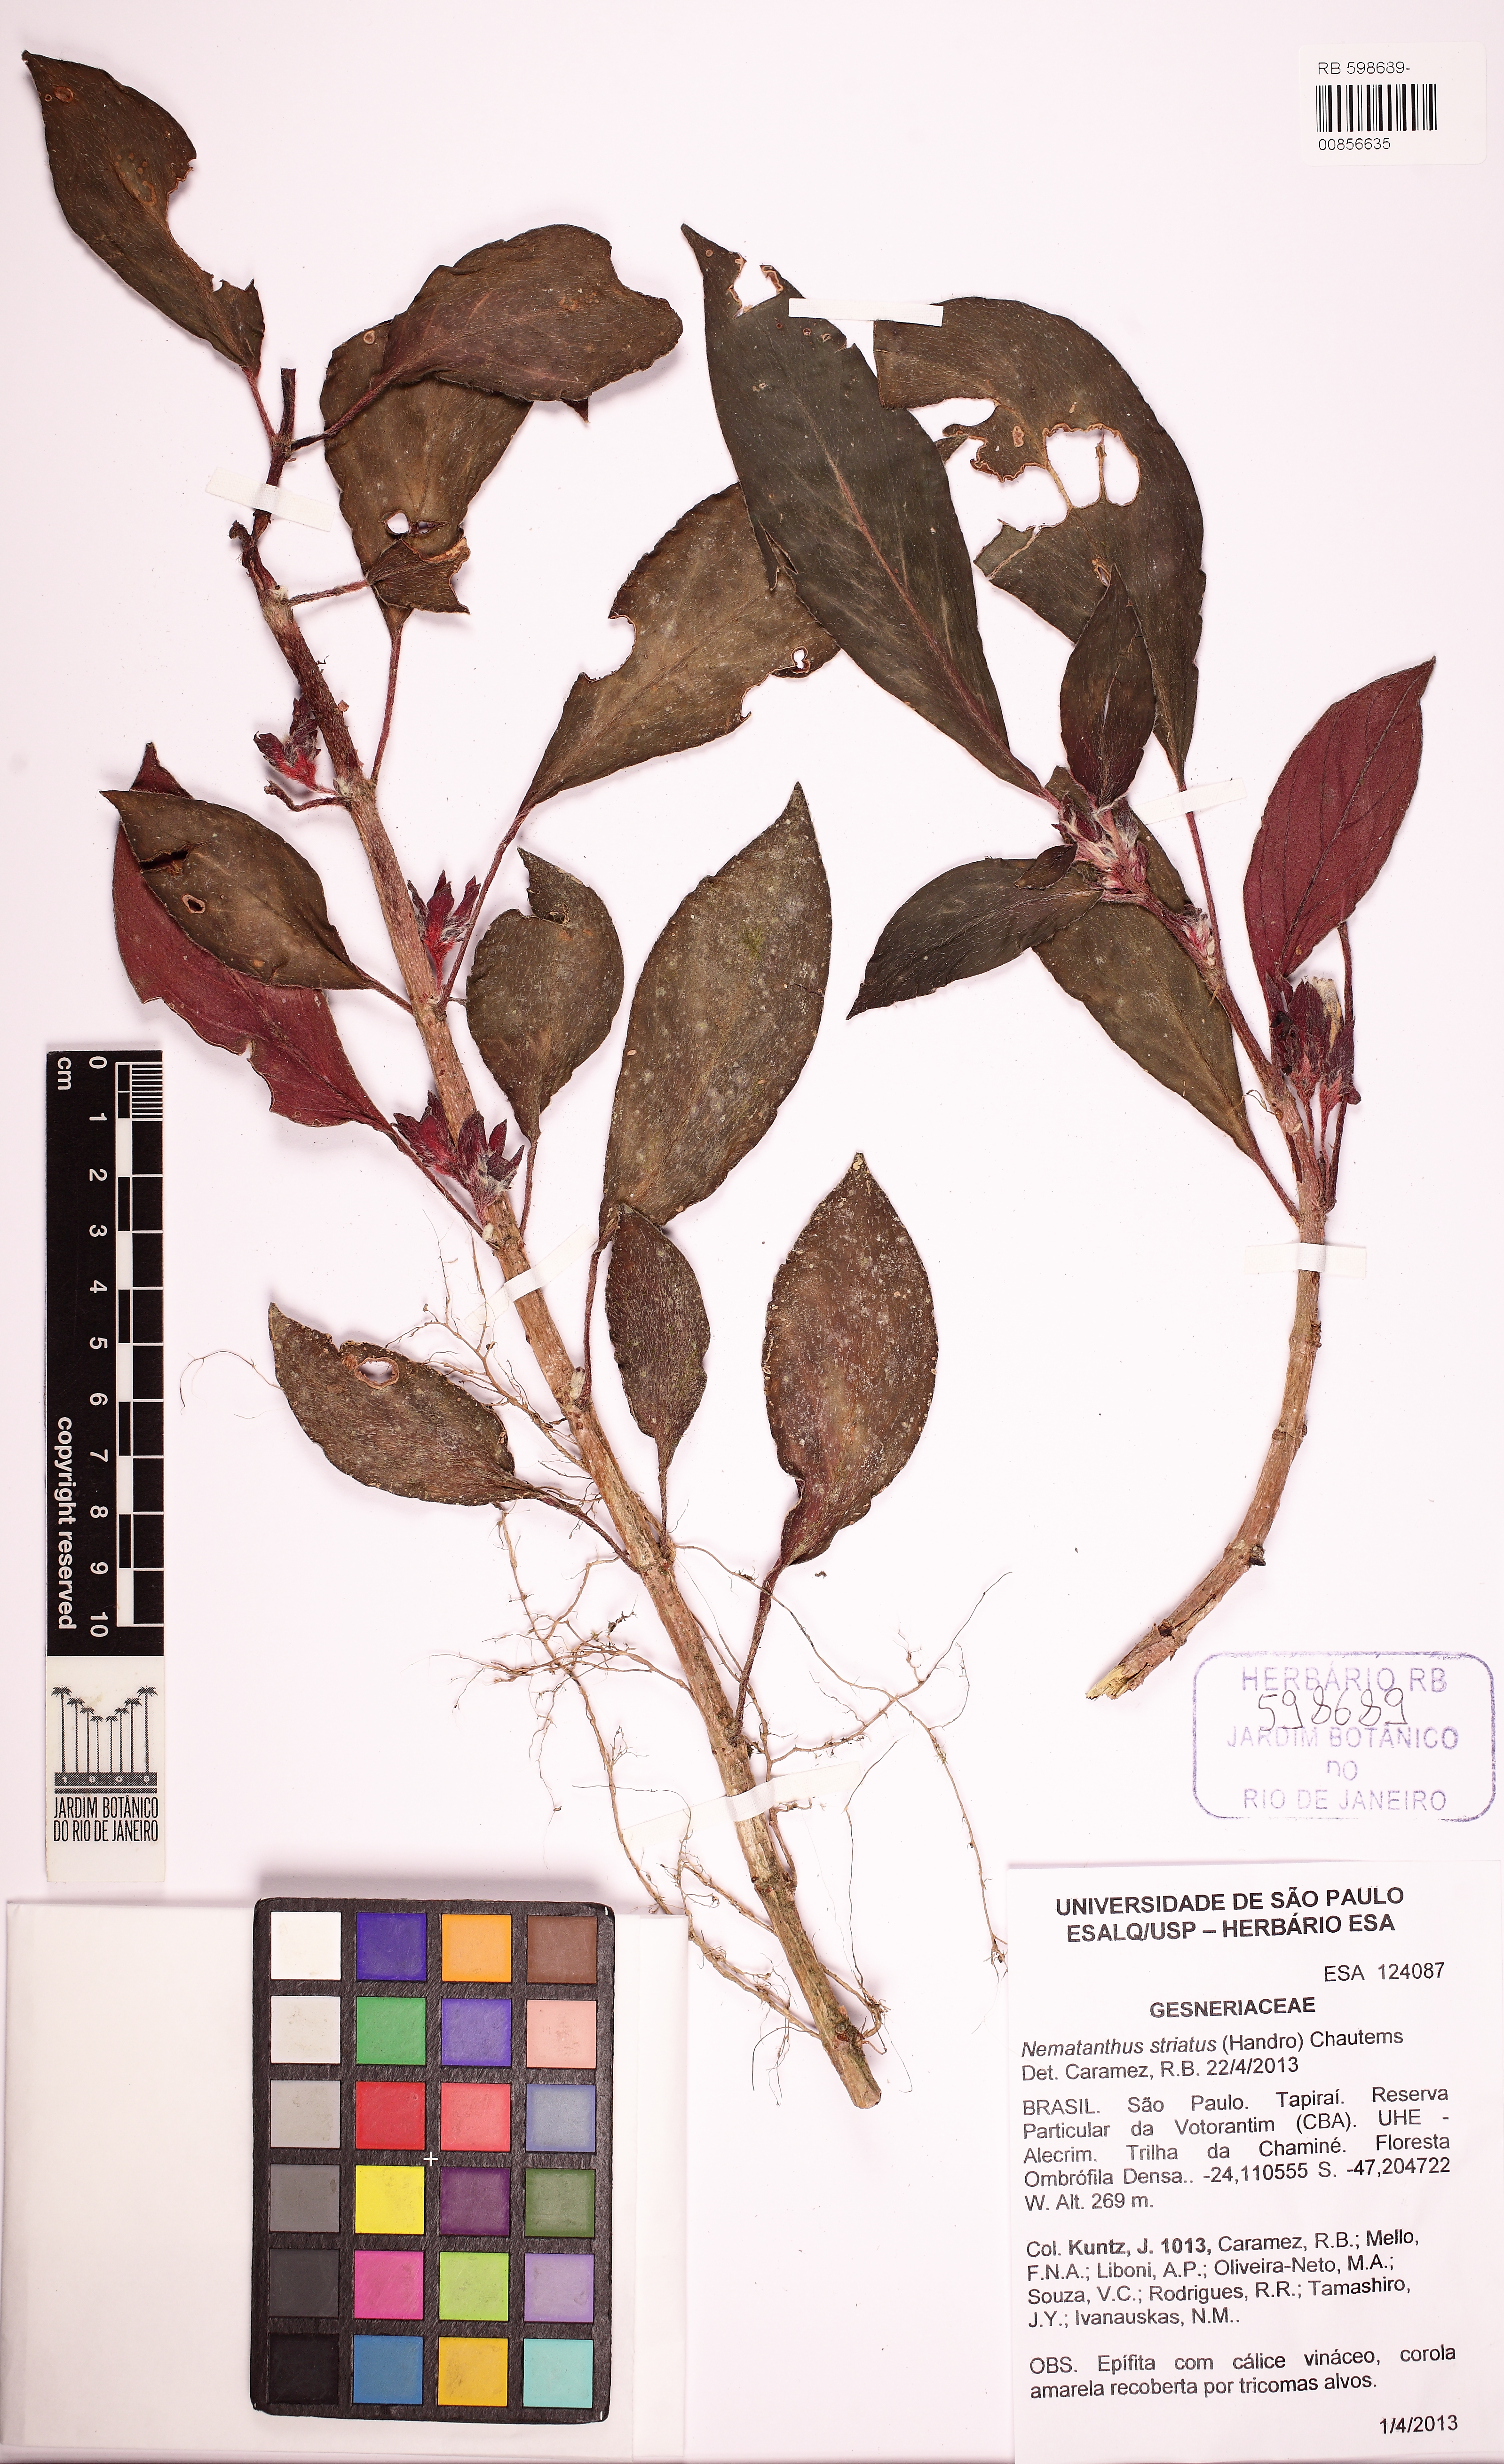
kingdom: Plantae
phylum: Tracheophyta
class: Magnoliopsida
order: Lamiales
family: Gesneriaceae
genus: Nematanthus
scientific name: Nematanthus striatus
